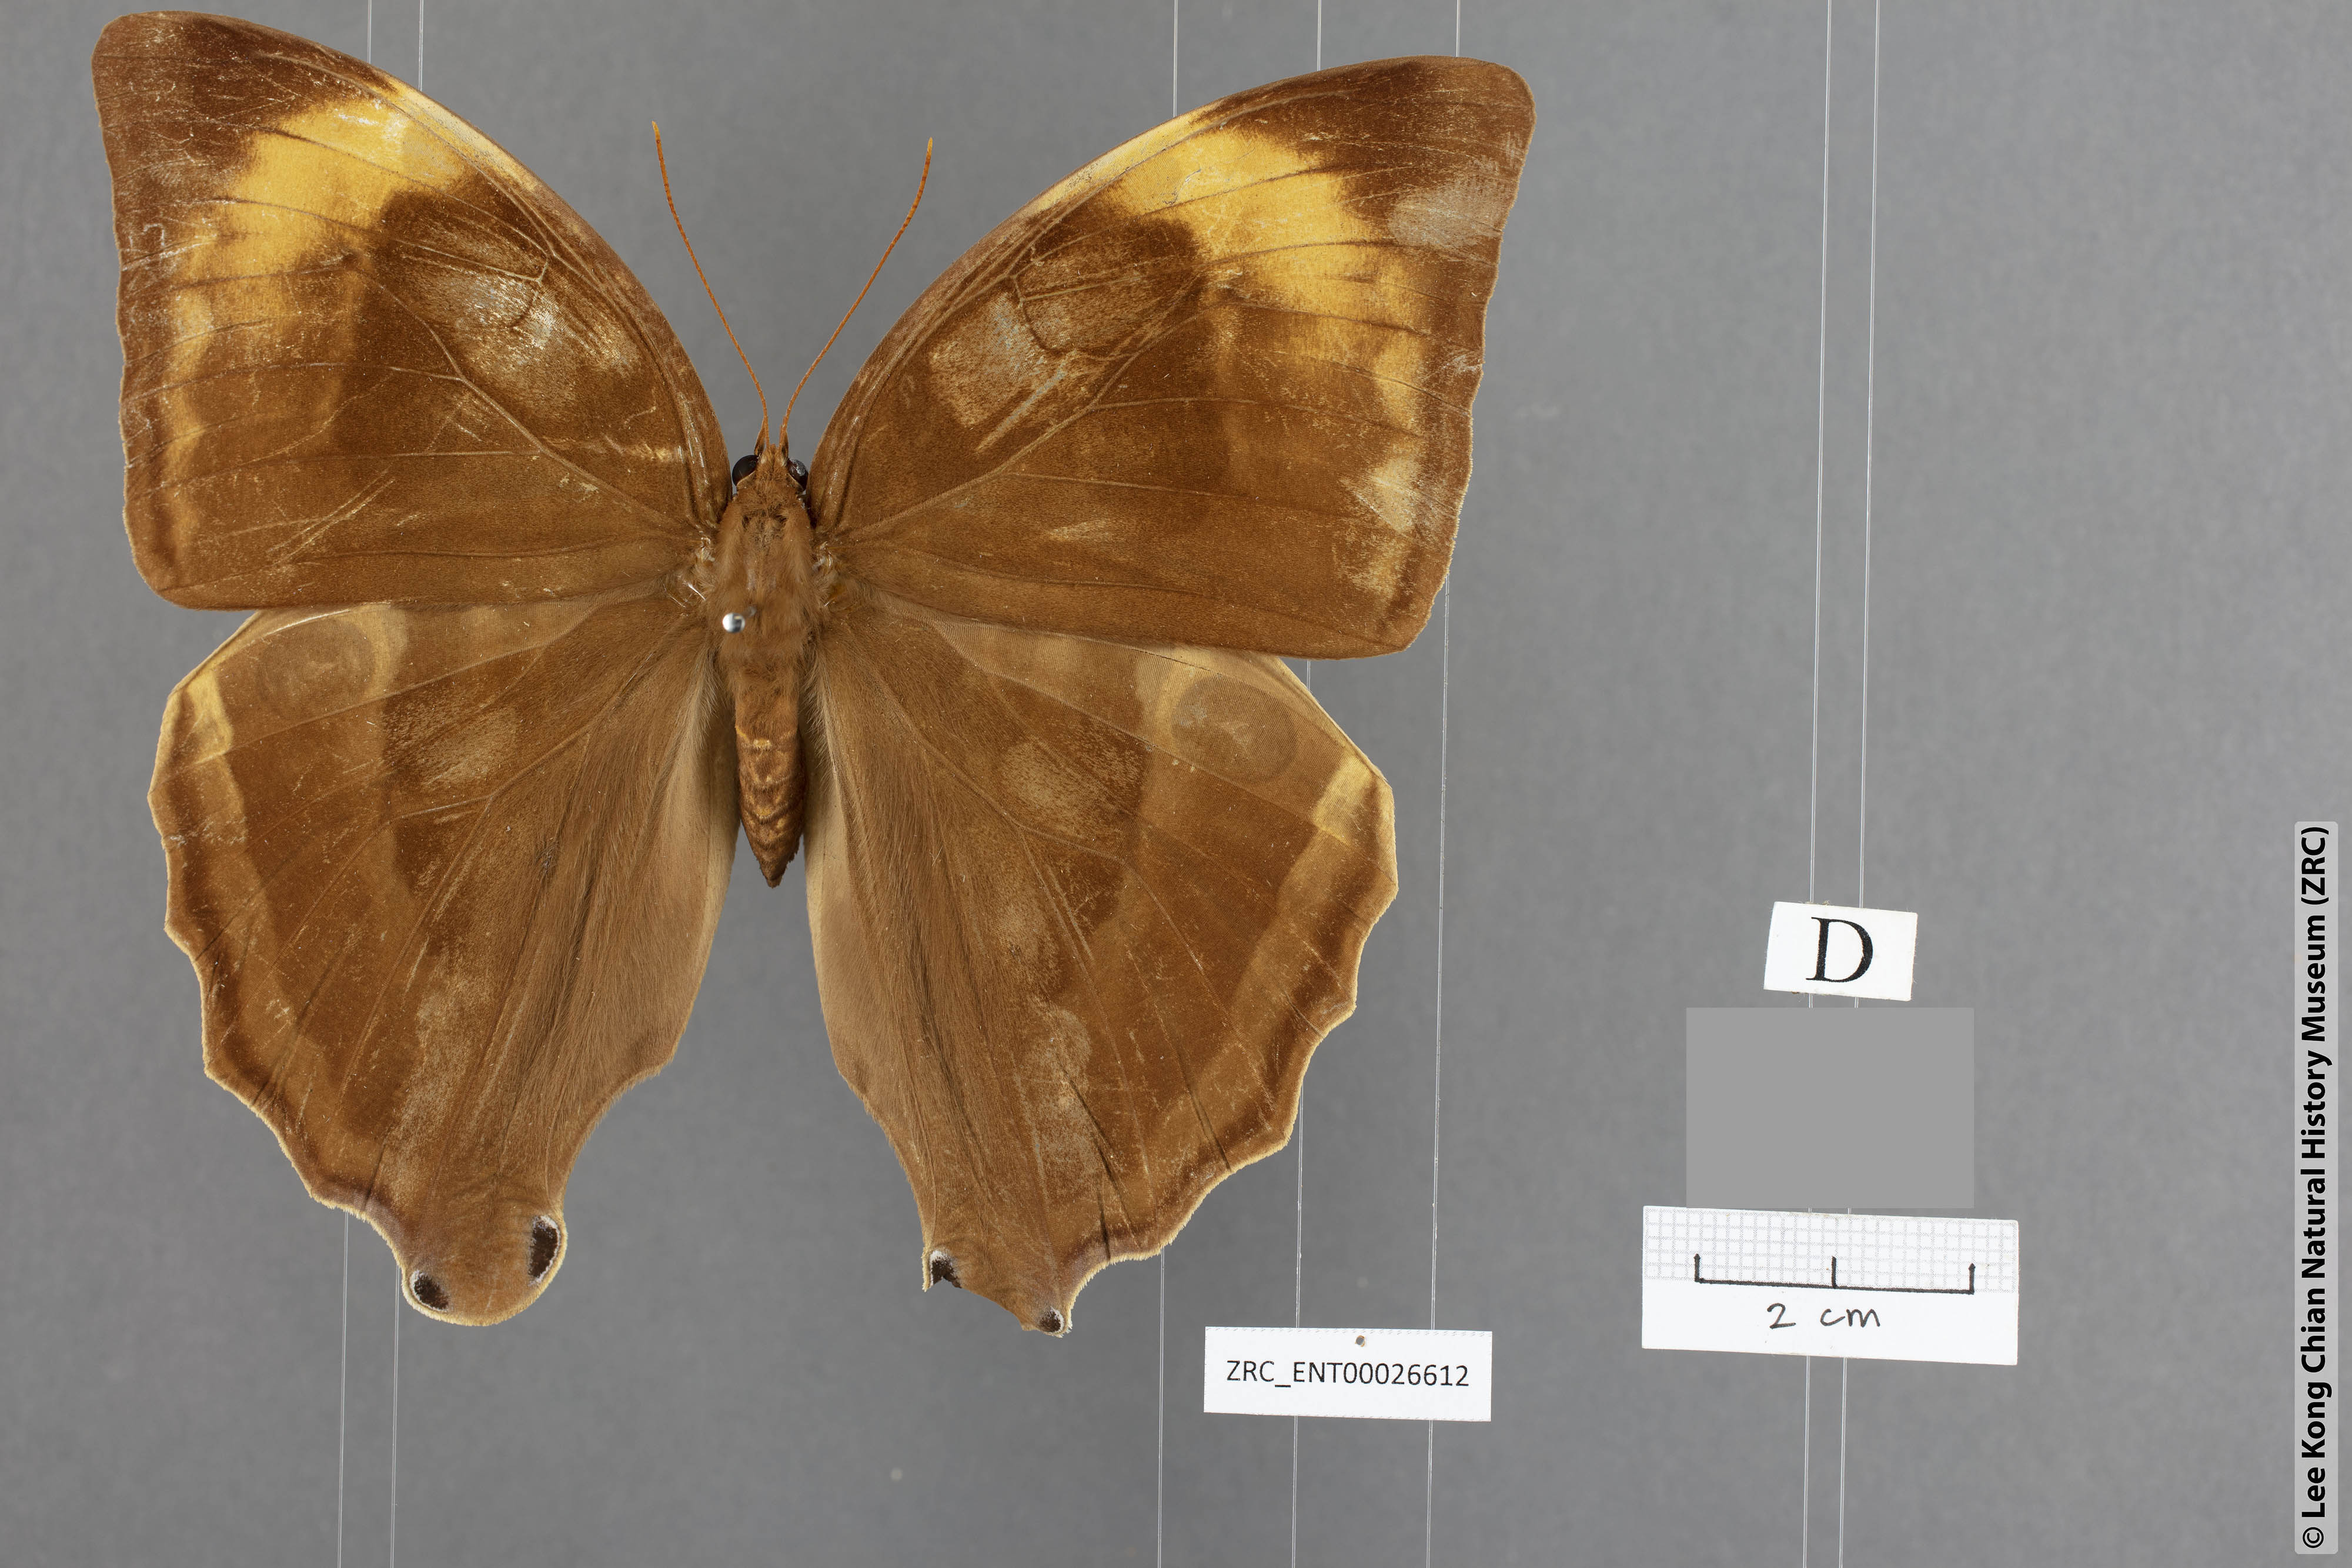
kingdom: Animalia
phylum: Arthropoda
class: Insecta
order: Lepidoptera
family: Nymphalidae
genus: Amathusia
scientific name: Amathusia
